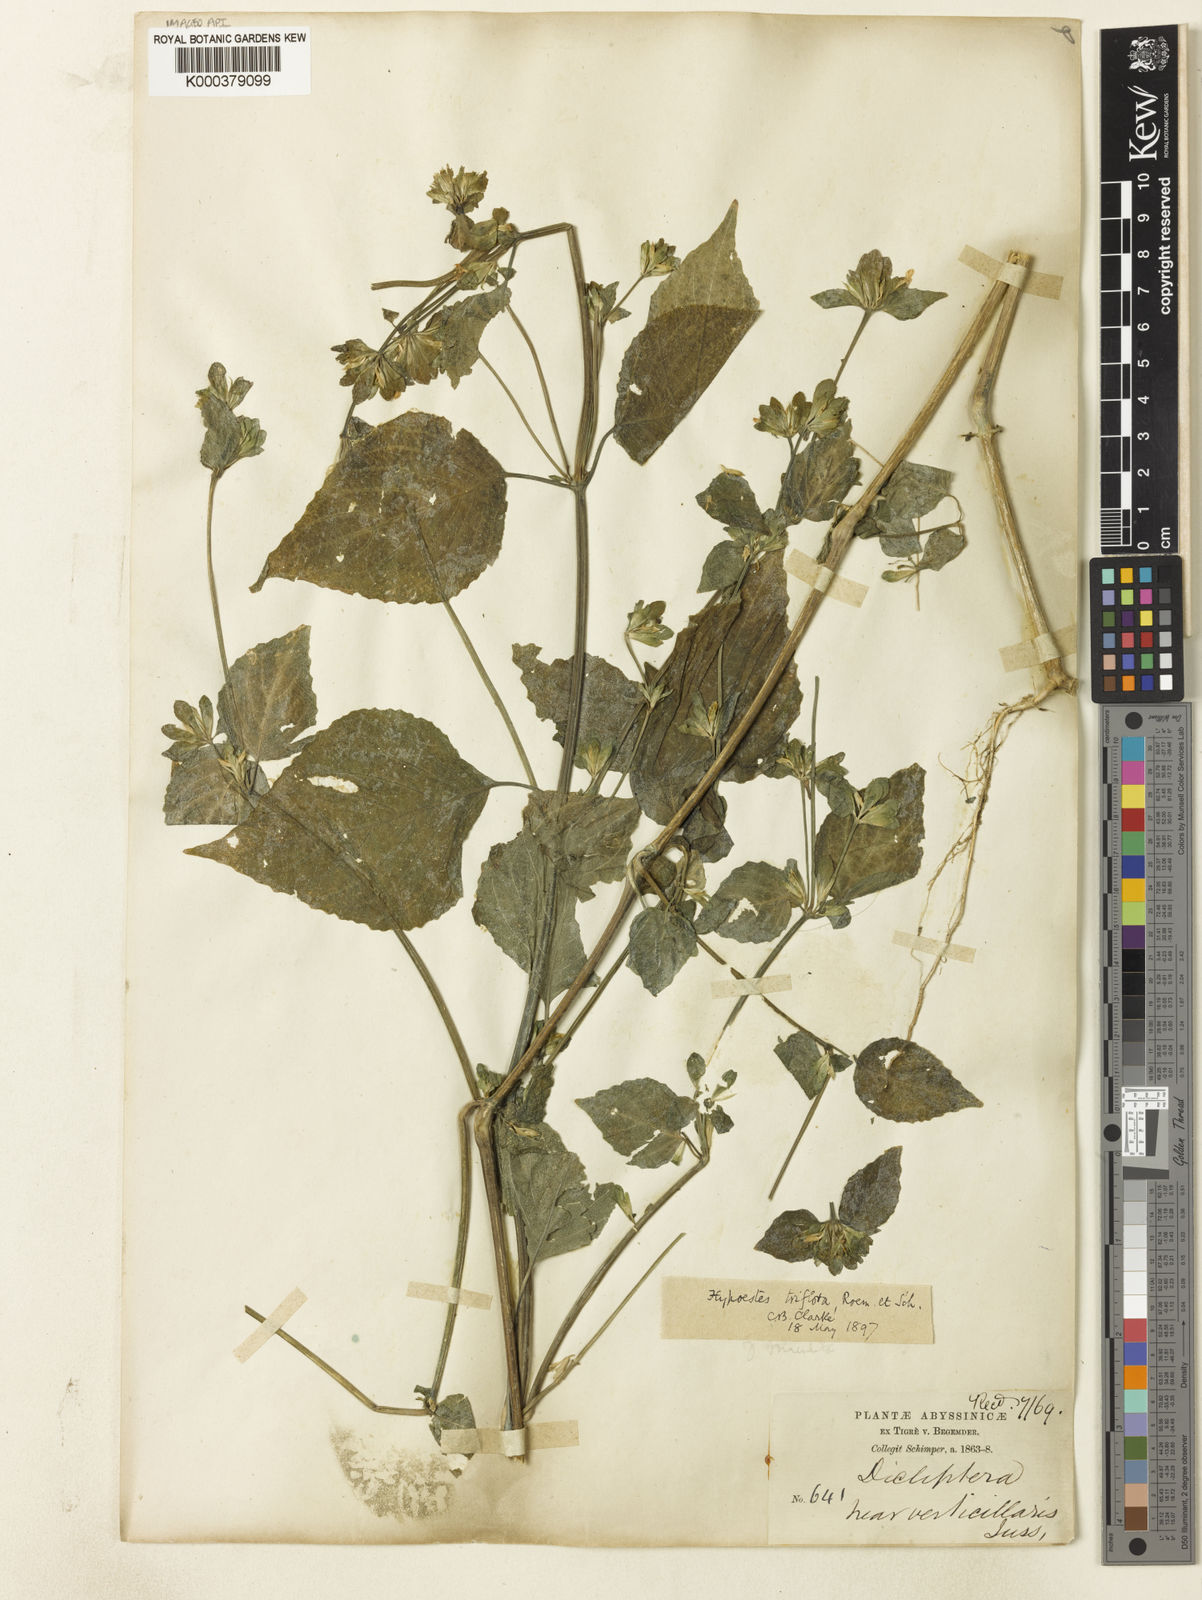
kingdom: Plantae
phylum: Tracheophyta
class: Magnoliopsida
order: Lamiales
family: Acanthaceae
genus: Hypoestes
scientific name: Hypoestes triflora
